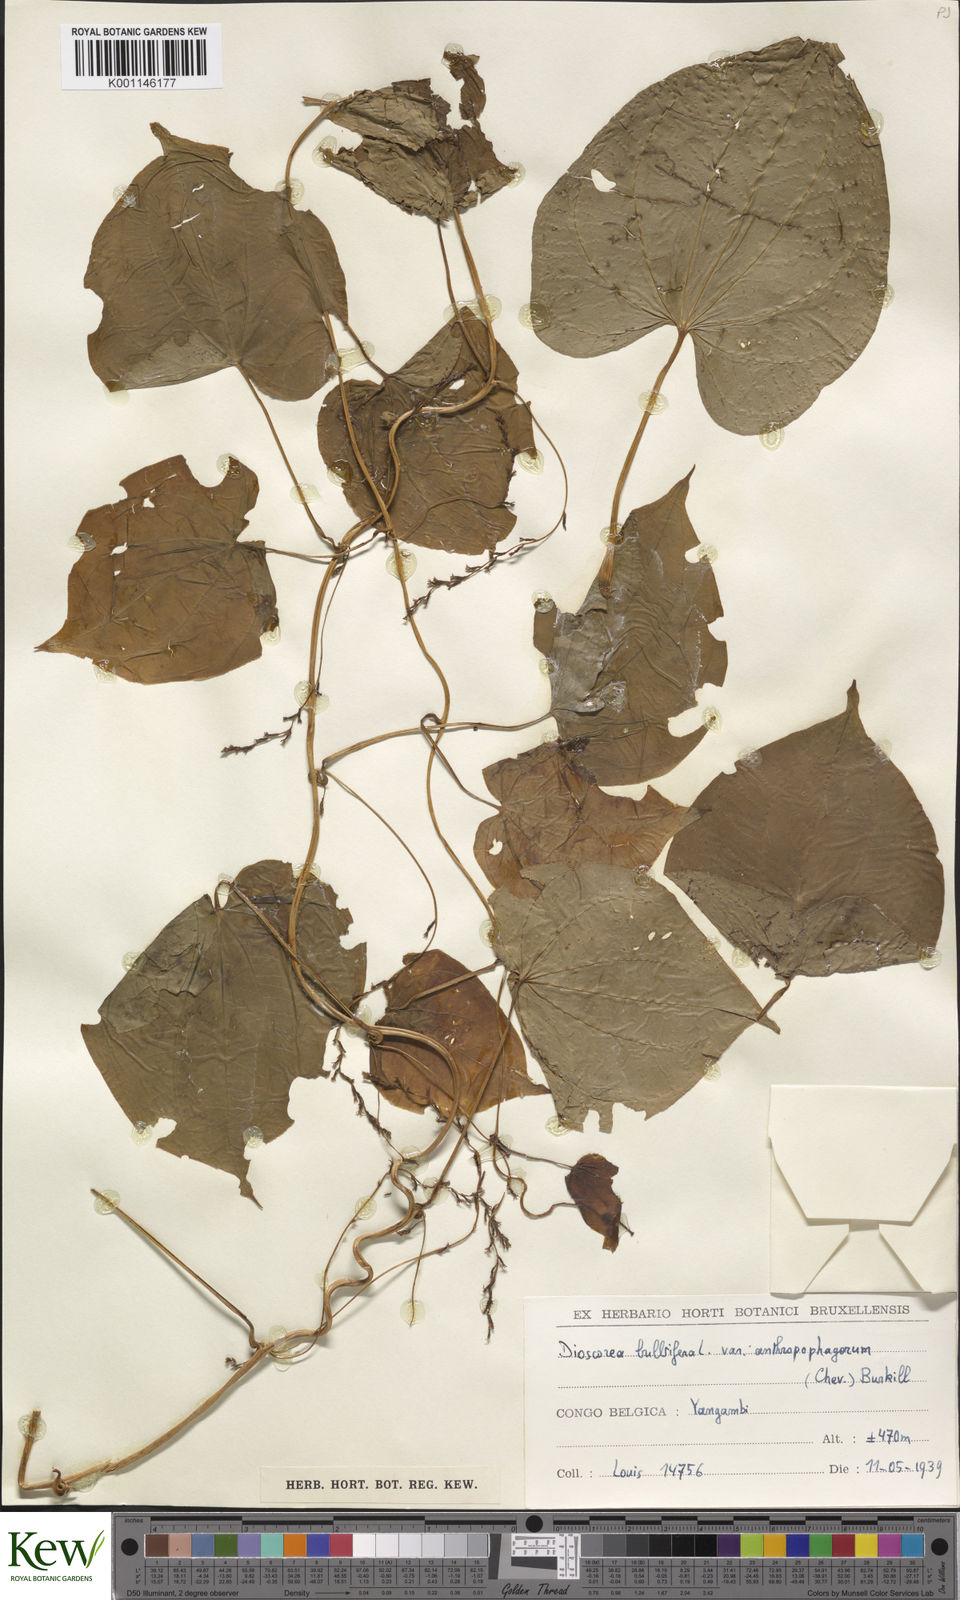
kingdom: Plantae
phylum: Tracheophyta
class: Liliopsida
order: Dioscoreales
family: Dioscoreaceae
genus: Dioscorea
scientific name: Dioscorea bulbifera
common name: Air yam
